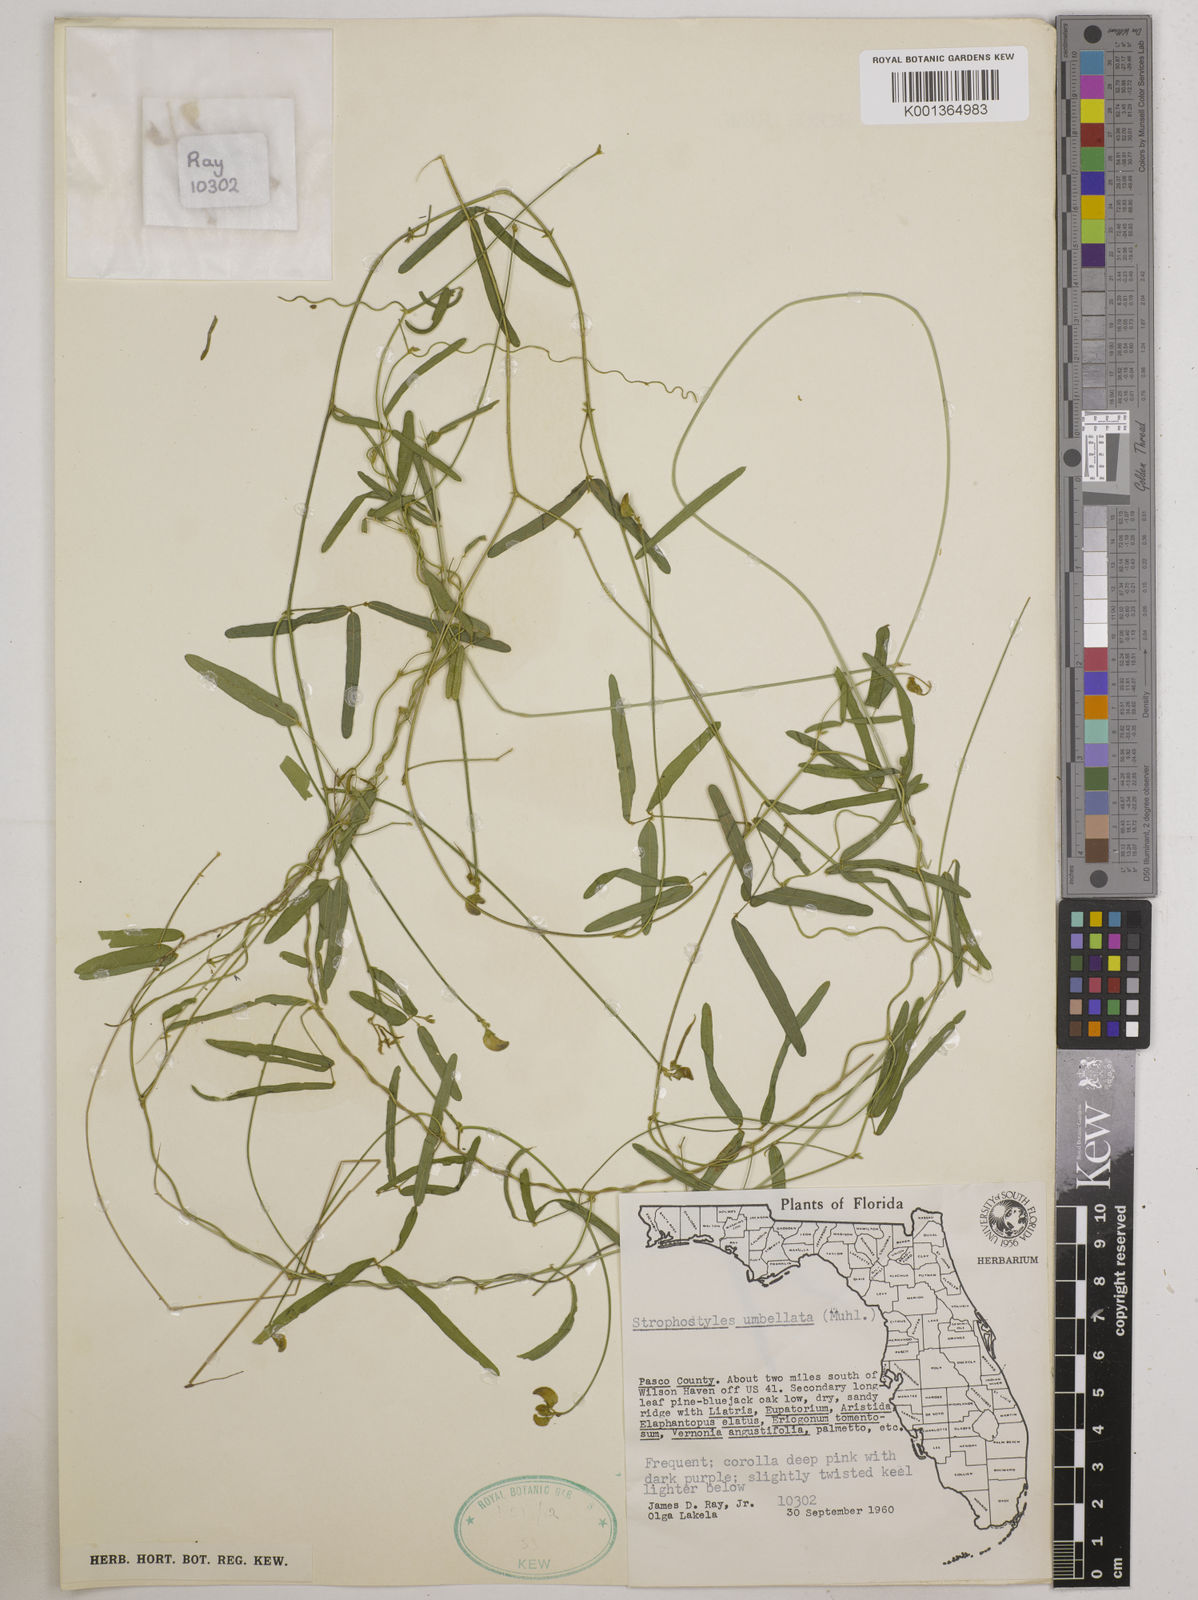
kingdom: Plantae
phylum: Tracheophyta
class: Magnoliopsida
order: Fabales
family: Fabaceae
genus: Strophostyles
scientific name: Strophostyles umbellata
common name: Perennial wild bean
